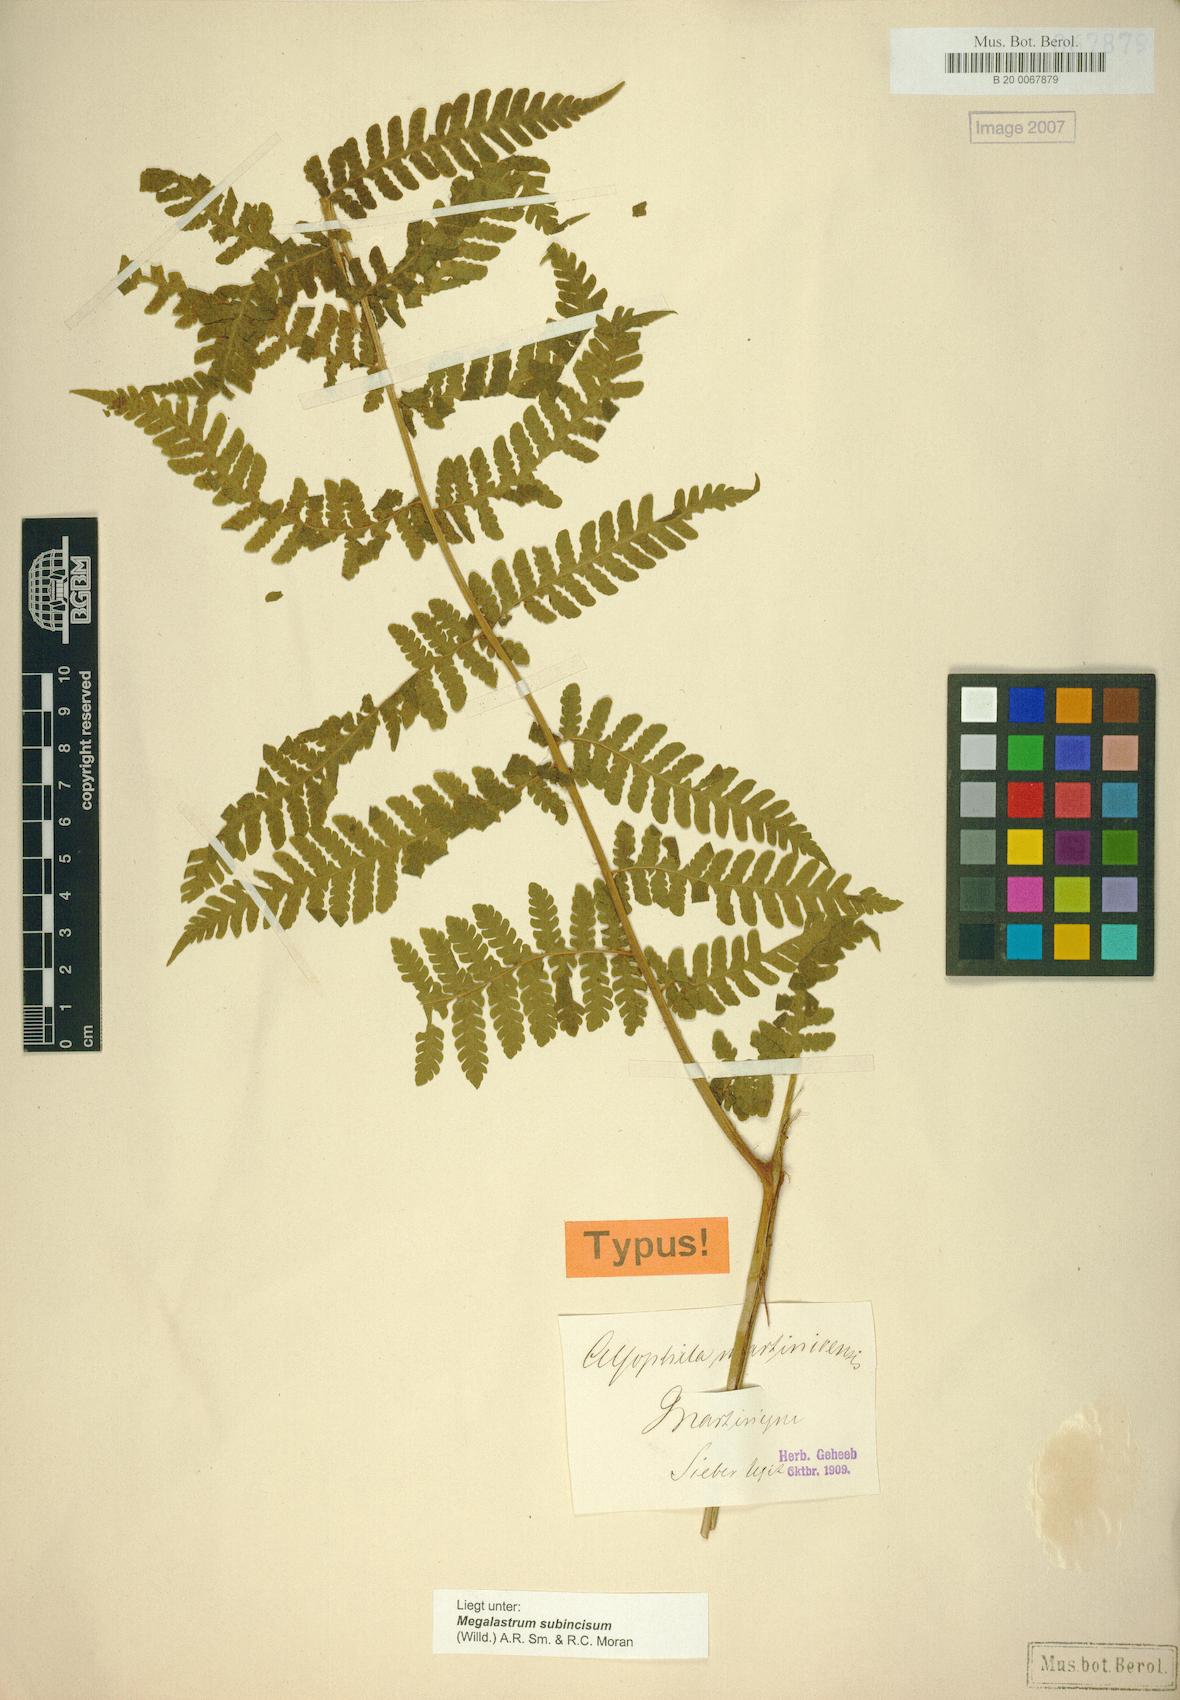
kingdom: Plantae
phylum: Tracheophyta
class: Polypodiopsida
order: Polypodiales
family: Dryopteridaceae
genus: Megalastrum
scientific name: Megalastrum martinicense
